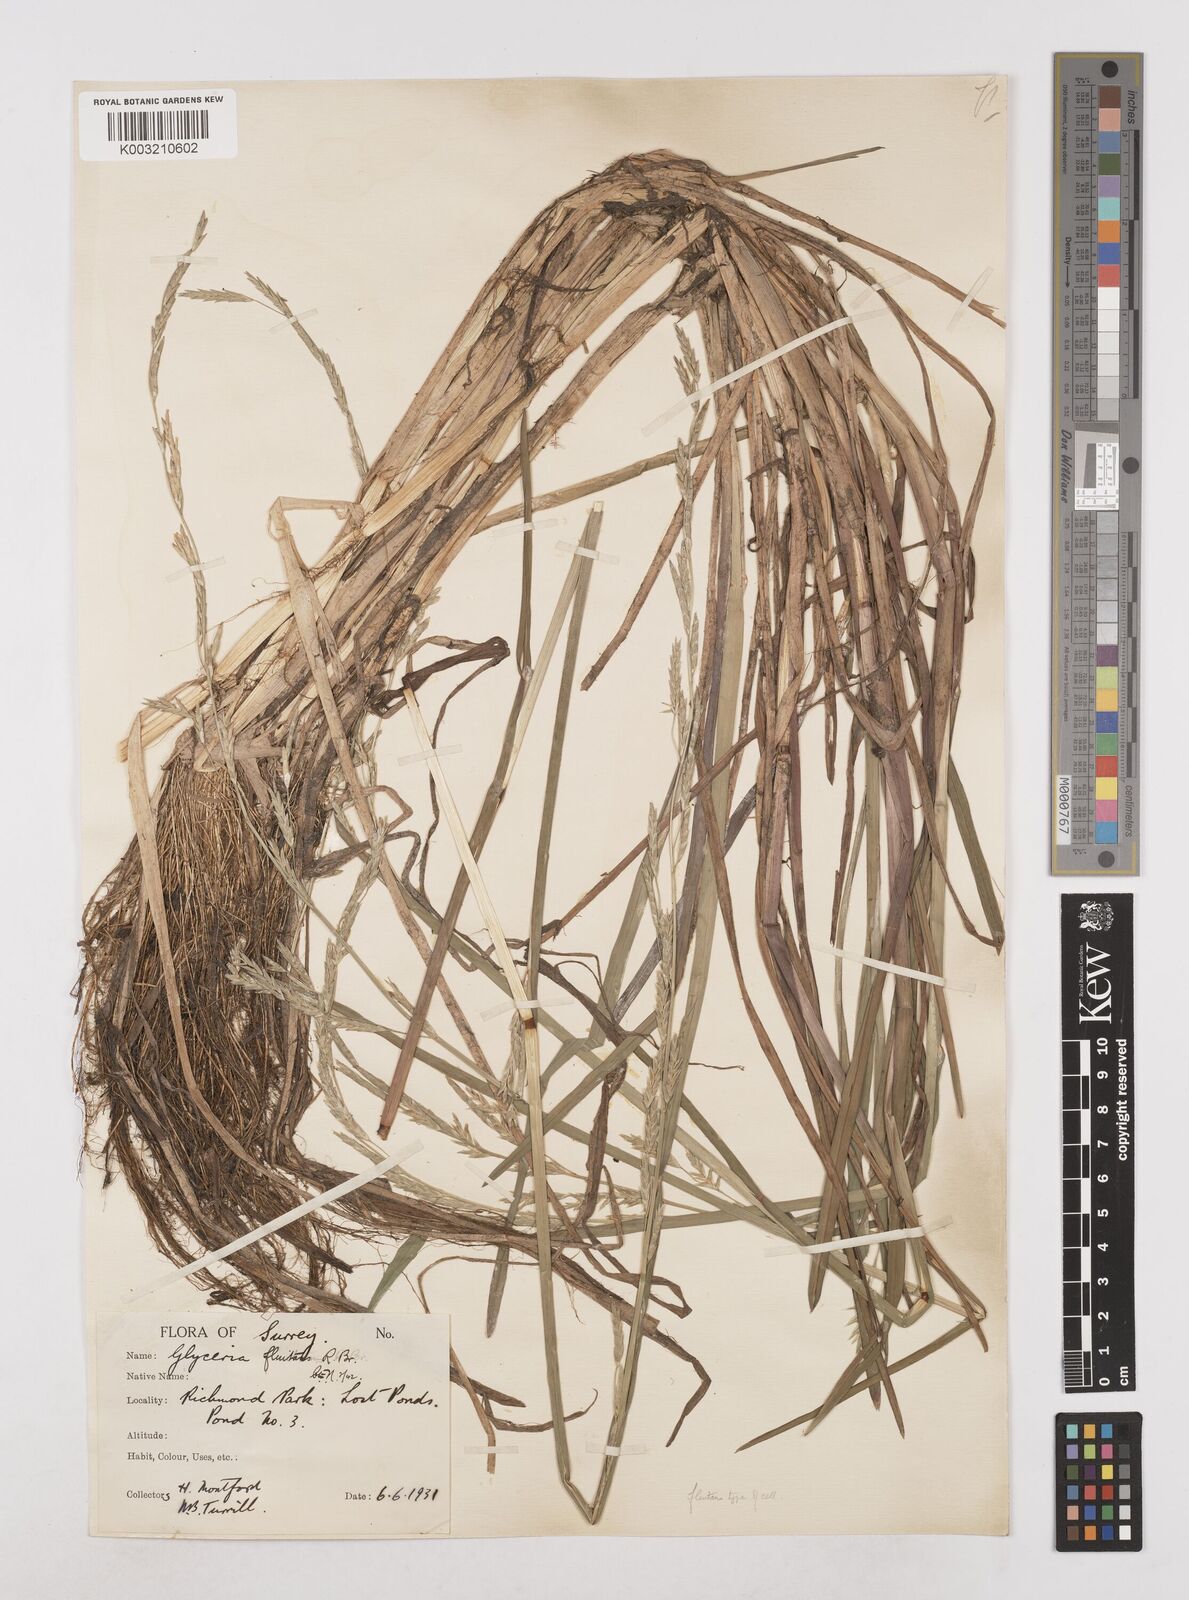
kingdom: Plantae
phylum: Tracheophyta
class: Liliopsida
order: Poales
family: Poaceae
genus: Glyceria
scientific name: Glyceria fluitans
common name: Floating sweet-grass
